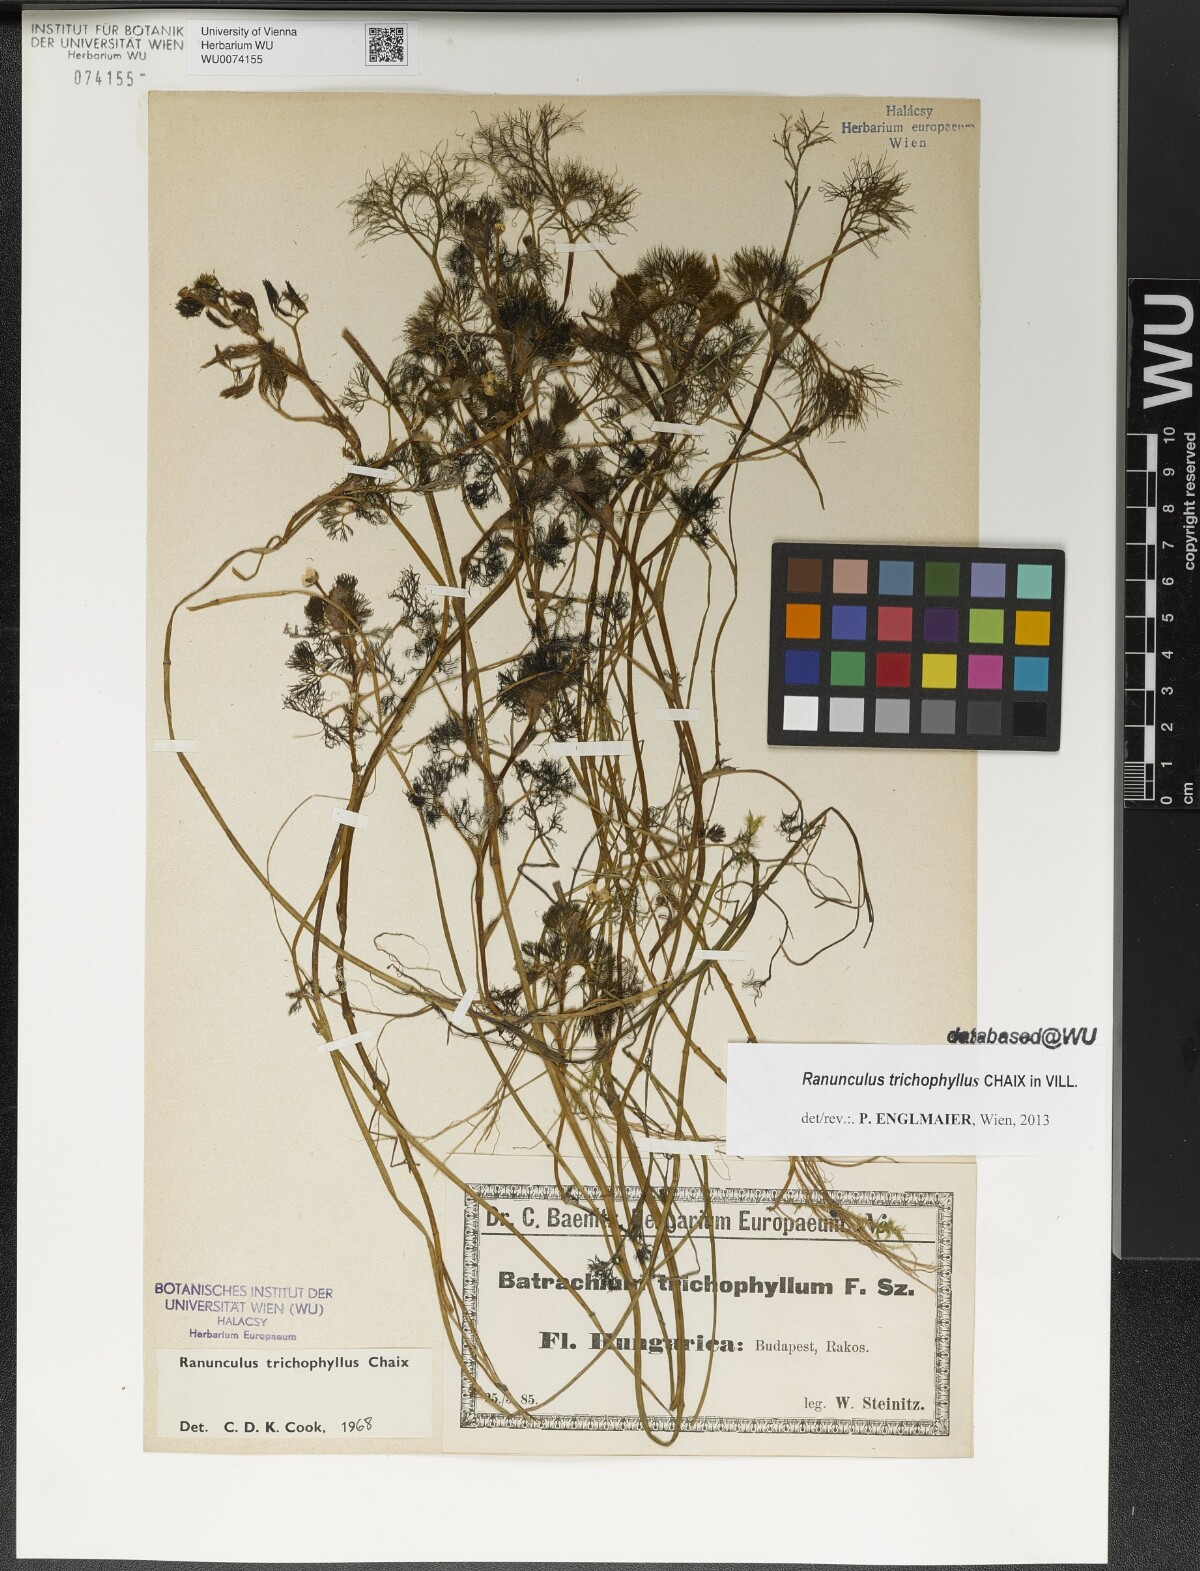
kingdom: Plantae
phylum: Tracheophyta
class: Magnoliopsida
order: Ranunculales
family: Ranunculaceae
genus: Ranunculus
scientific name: Ranunculus trichophyllus
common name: Thread-leaved water-crowfoot
